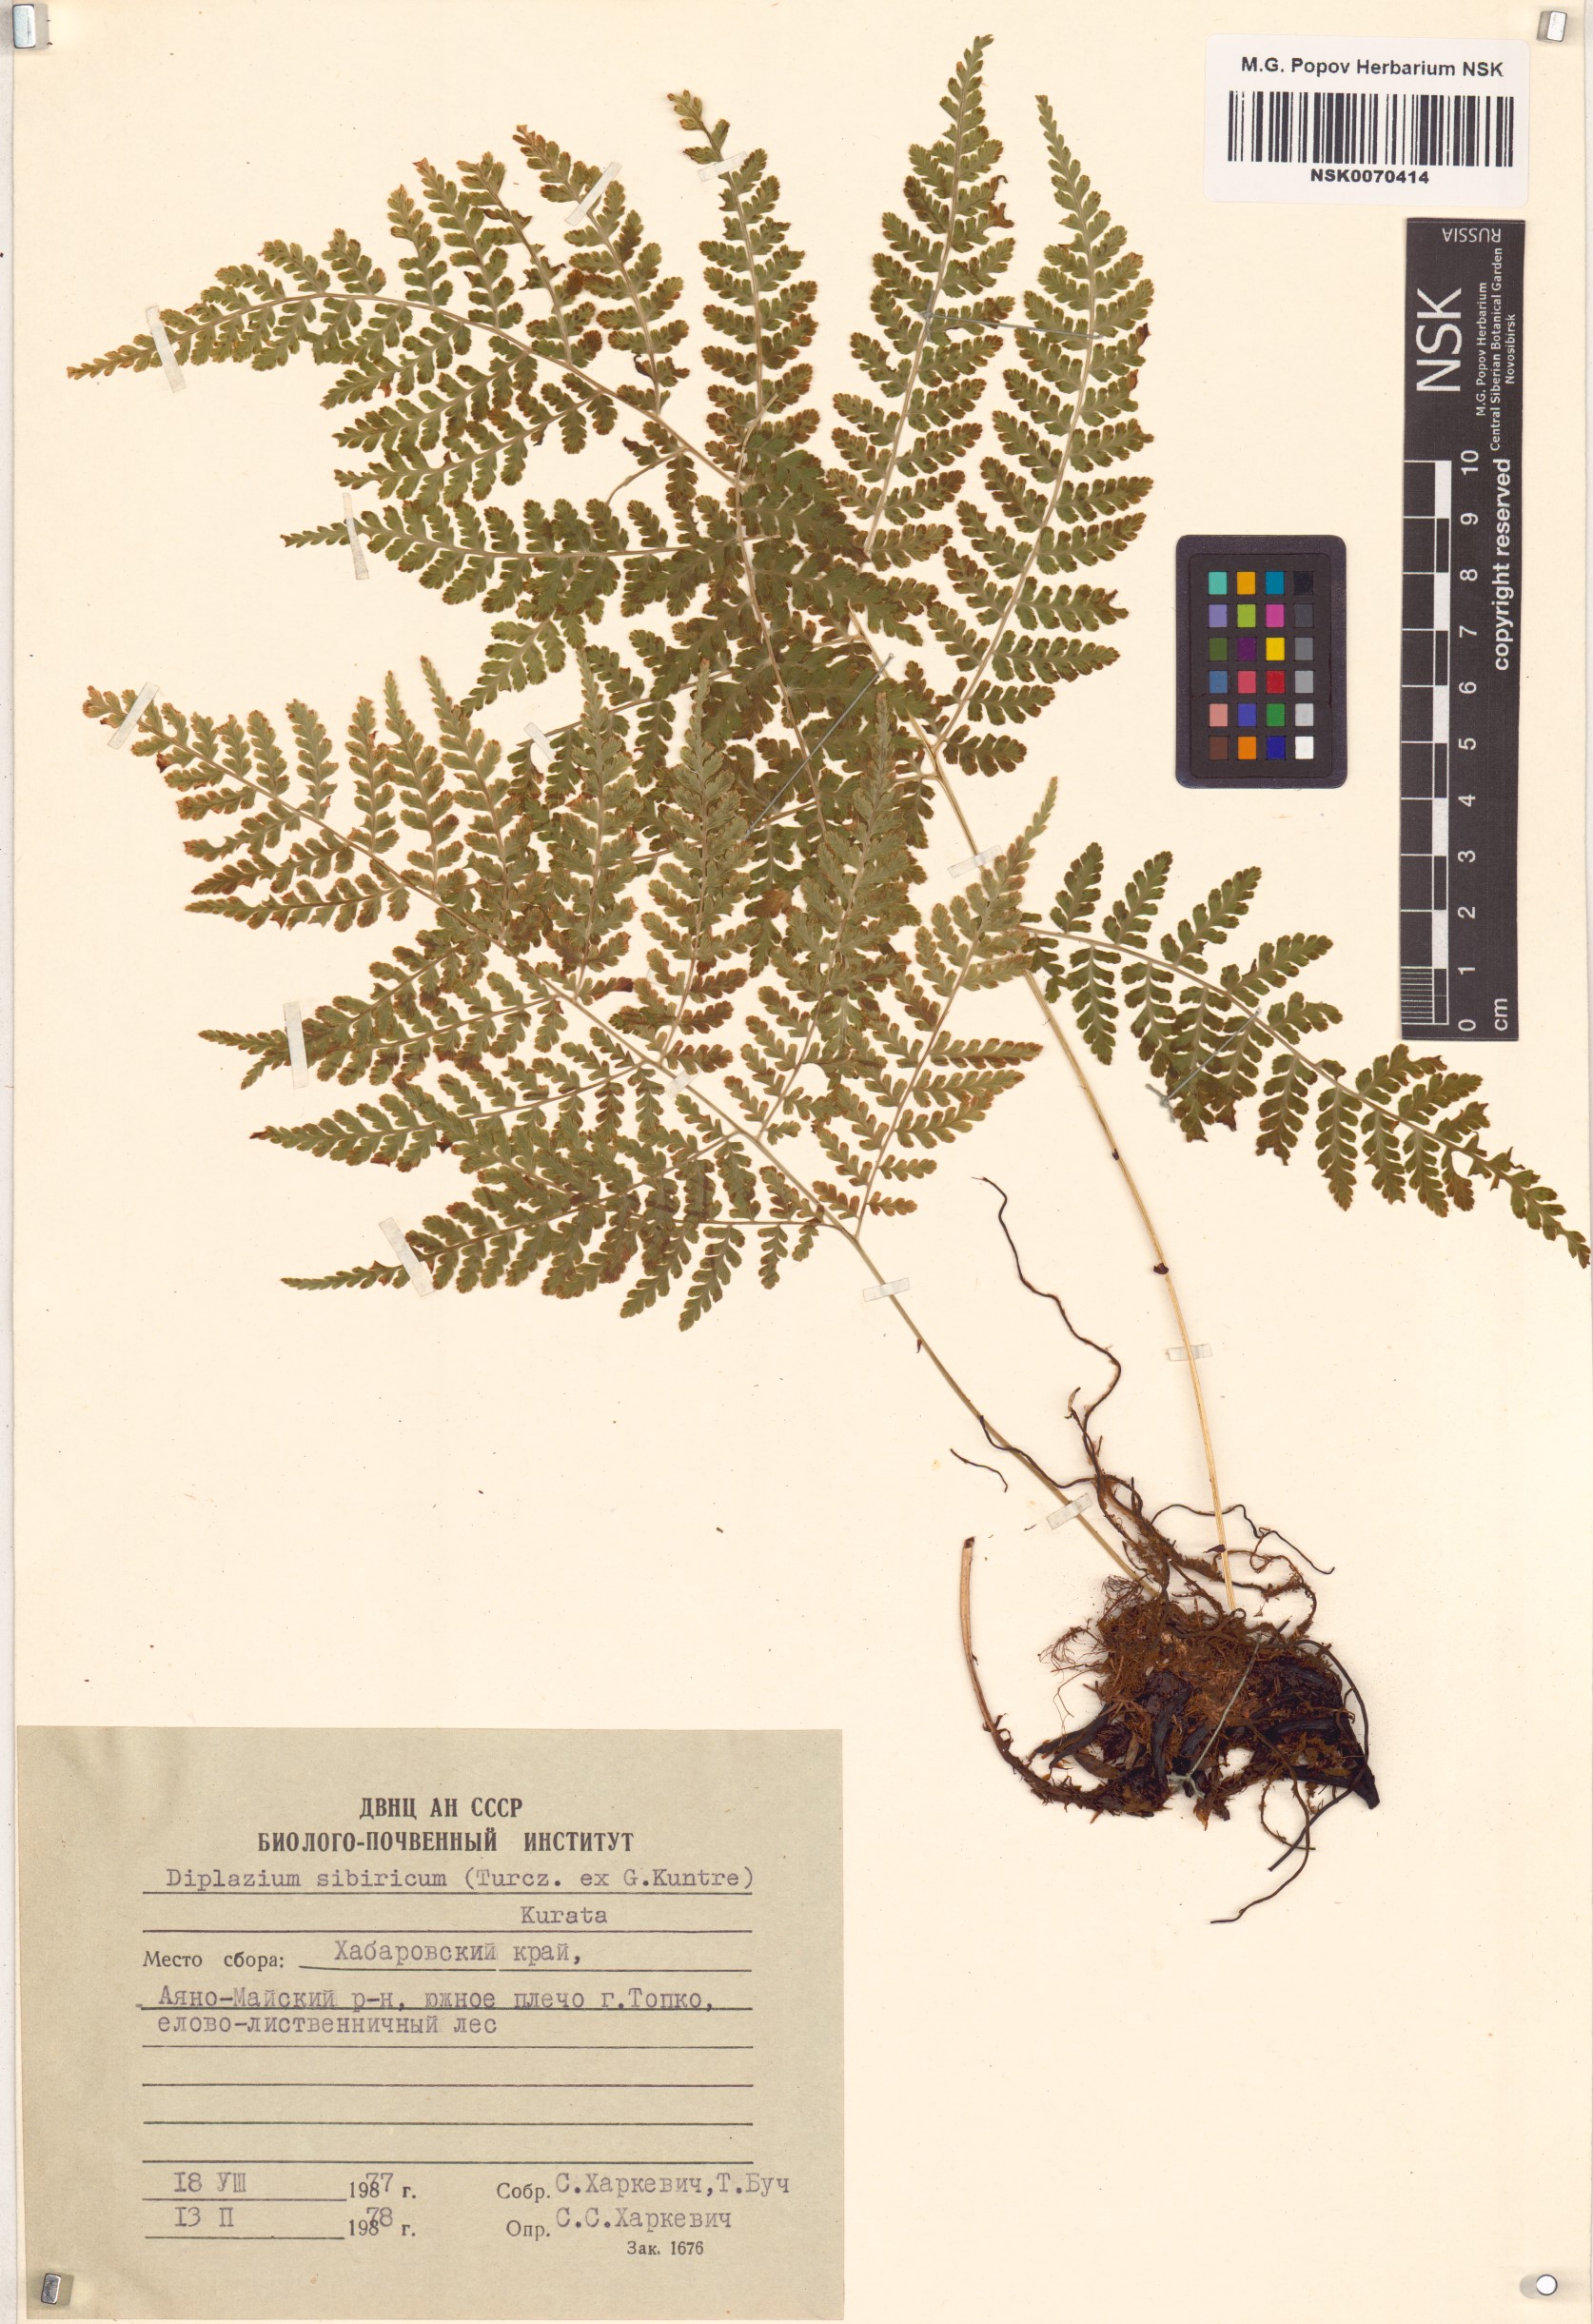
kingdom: Plantae
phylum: Tracheophyta
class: Polypodiopsida
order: Polypodiales
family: Athyriaceae
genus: Diplazium
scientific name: Diplazium sibiricum
